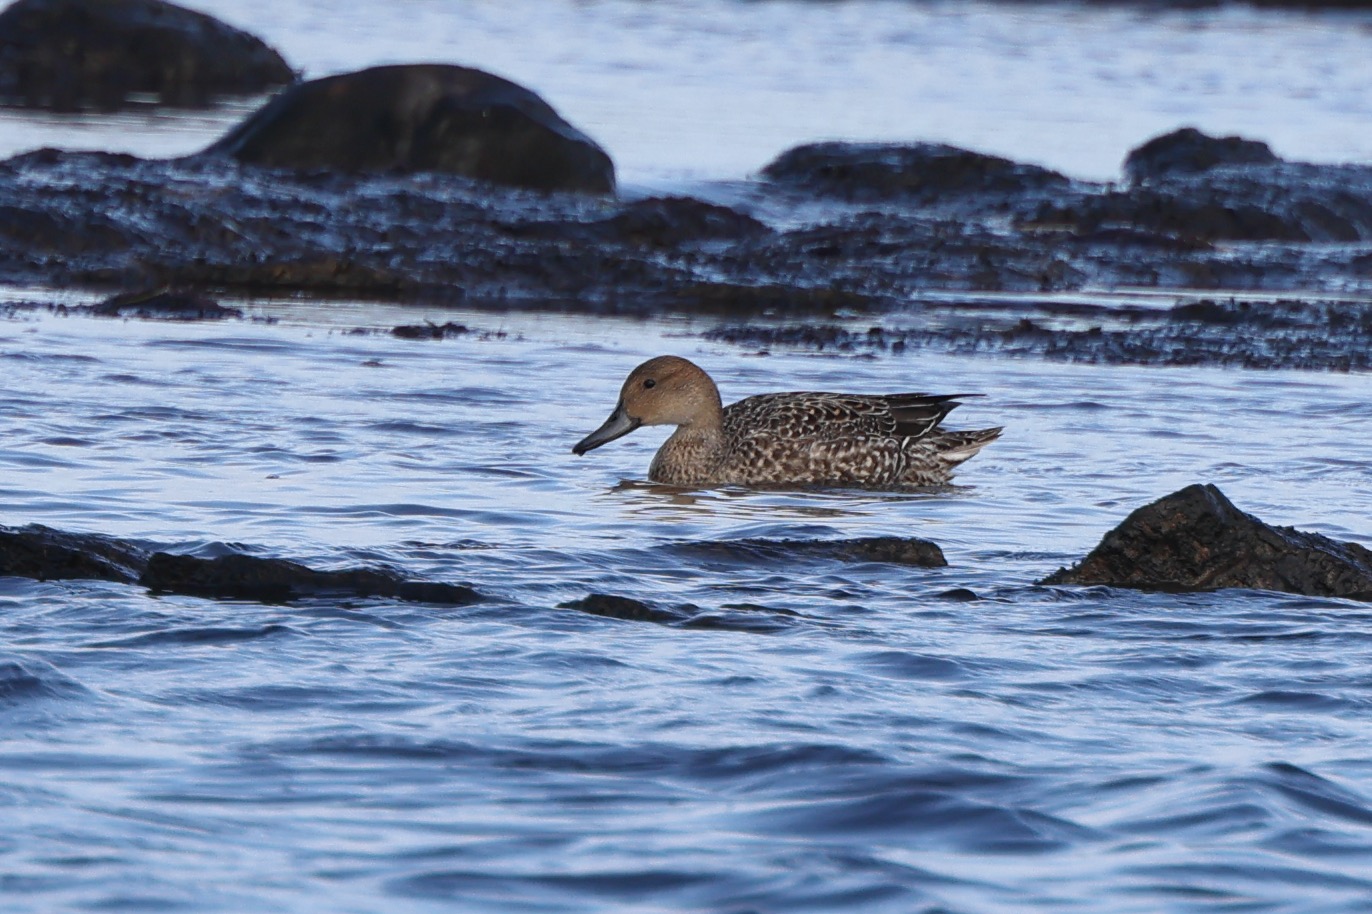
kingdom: Animalia
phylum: Chordata
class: Aves
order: Anseriformes
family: Anatidae
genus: Anas
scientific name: Anas acuta
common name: Spidsand
